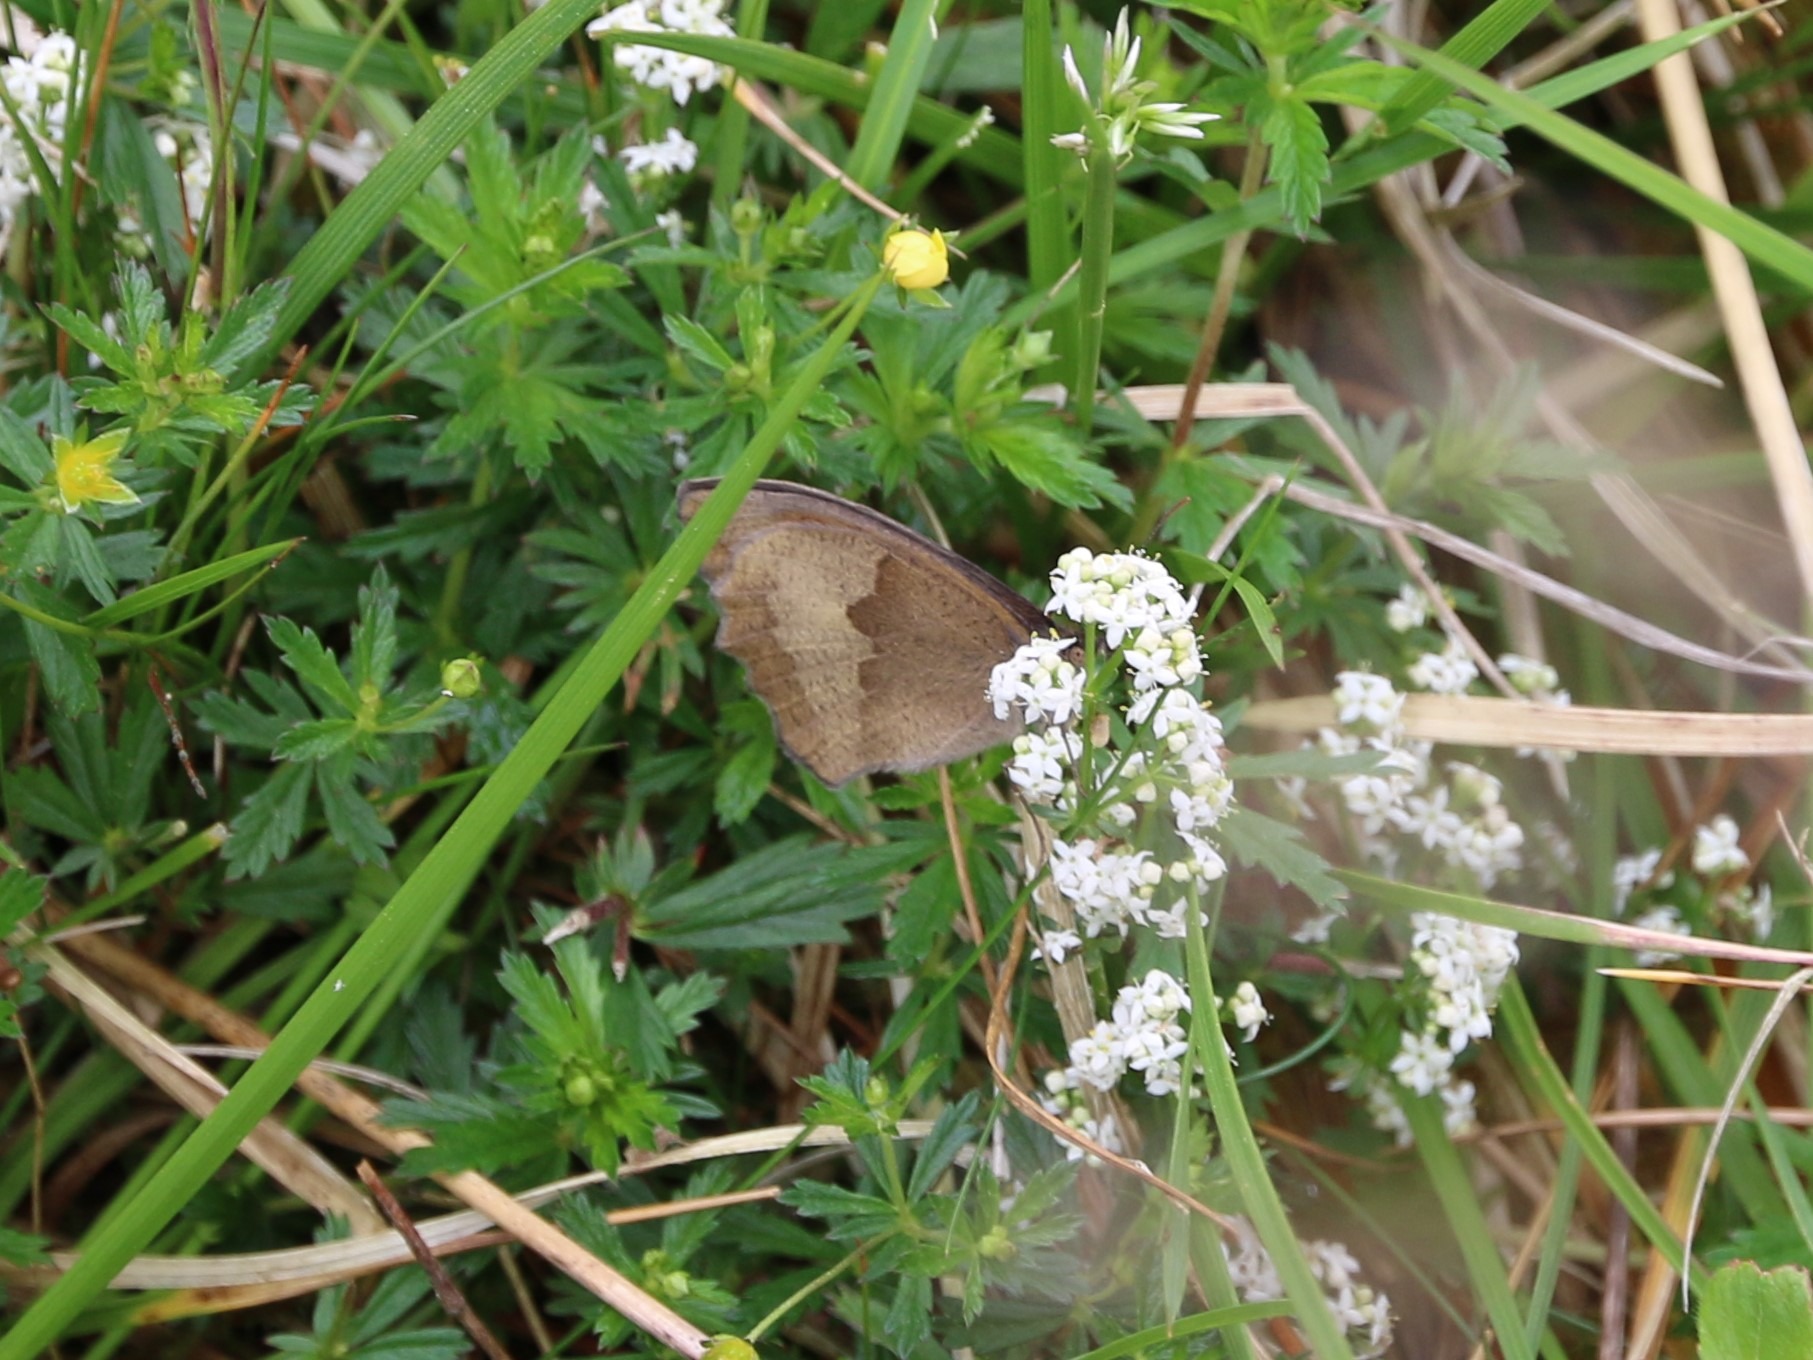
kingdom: Animalia
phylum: Arthropoda
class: Insecta
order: Lepidoptera
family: Nymphalidae
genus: Maniola
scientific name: Maniola jurtina
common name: Græsrandøje
